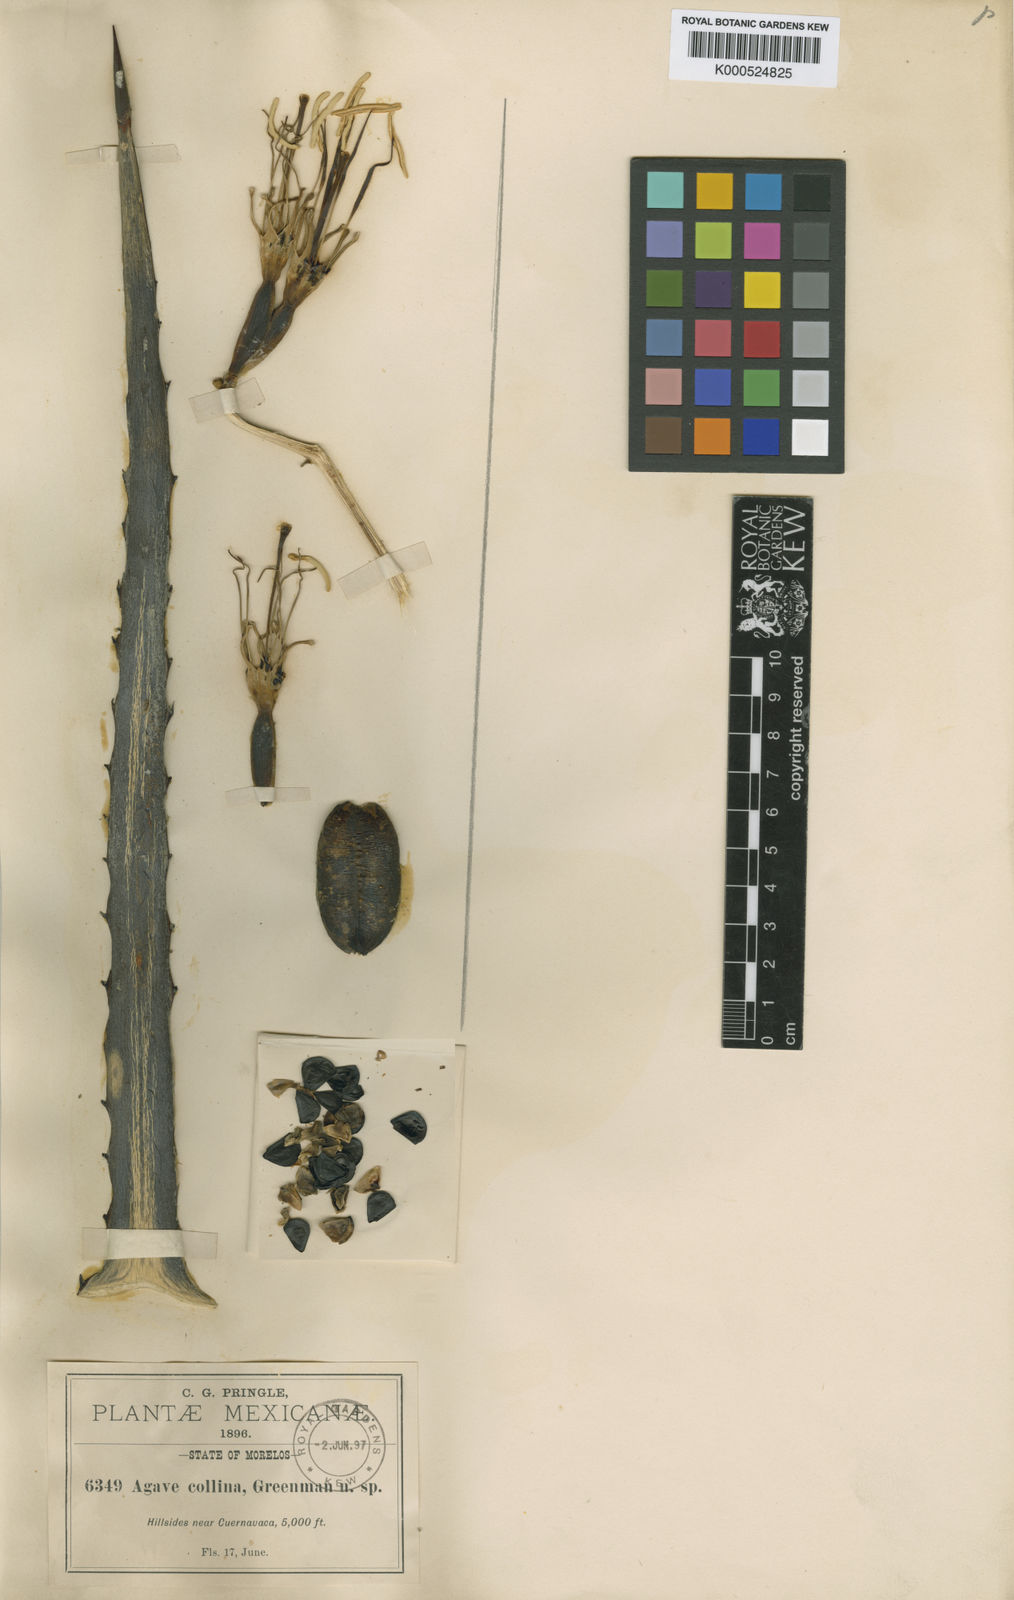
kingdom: Plantae
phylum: Tracheophyta
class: Liliopsida
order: Asparagales
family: Asparagaceae
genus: Agave
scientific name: Agave collina
